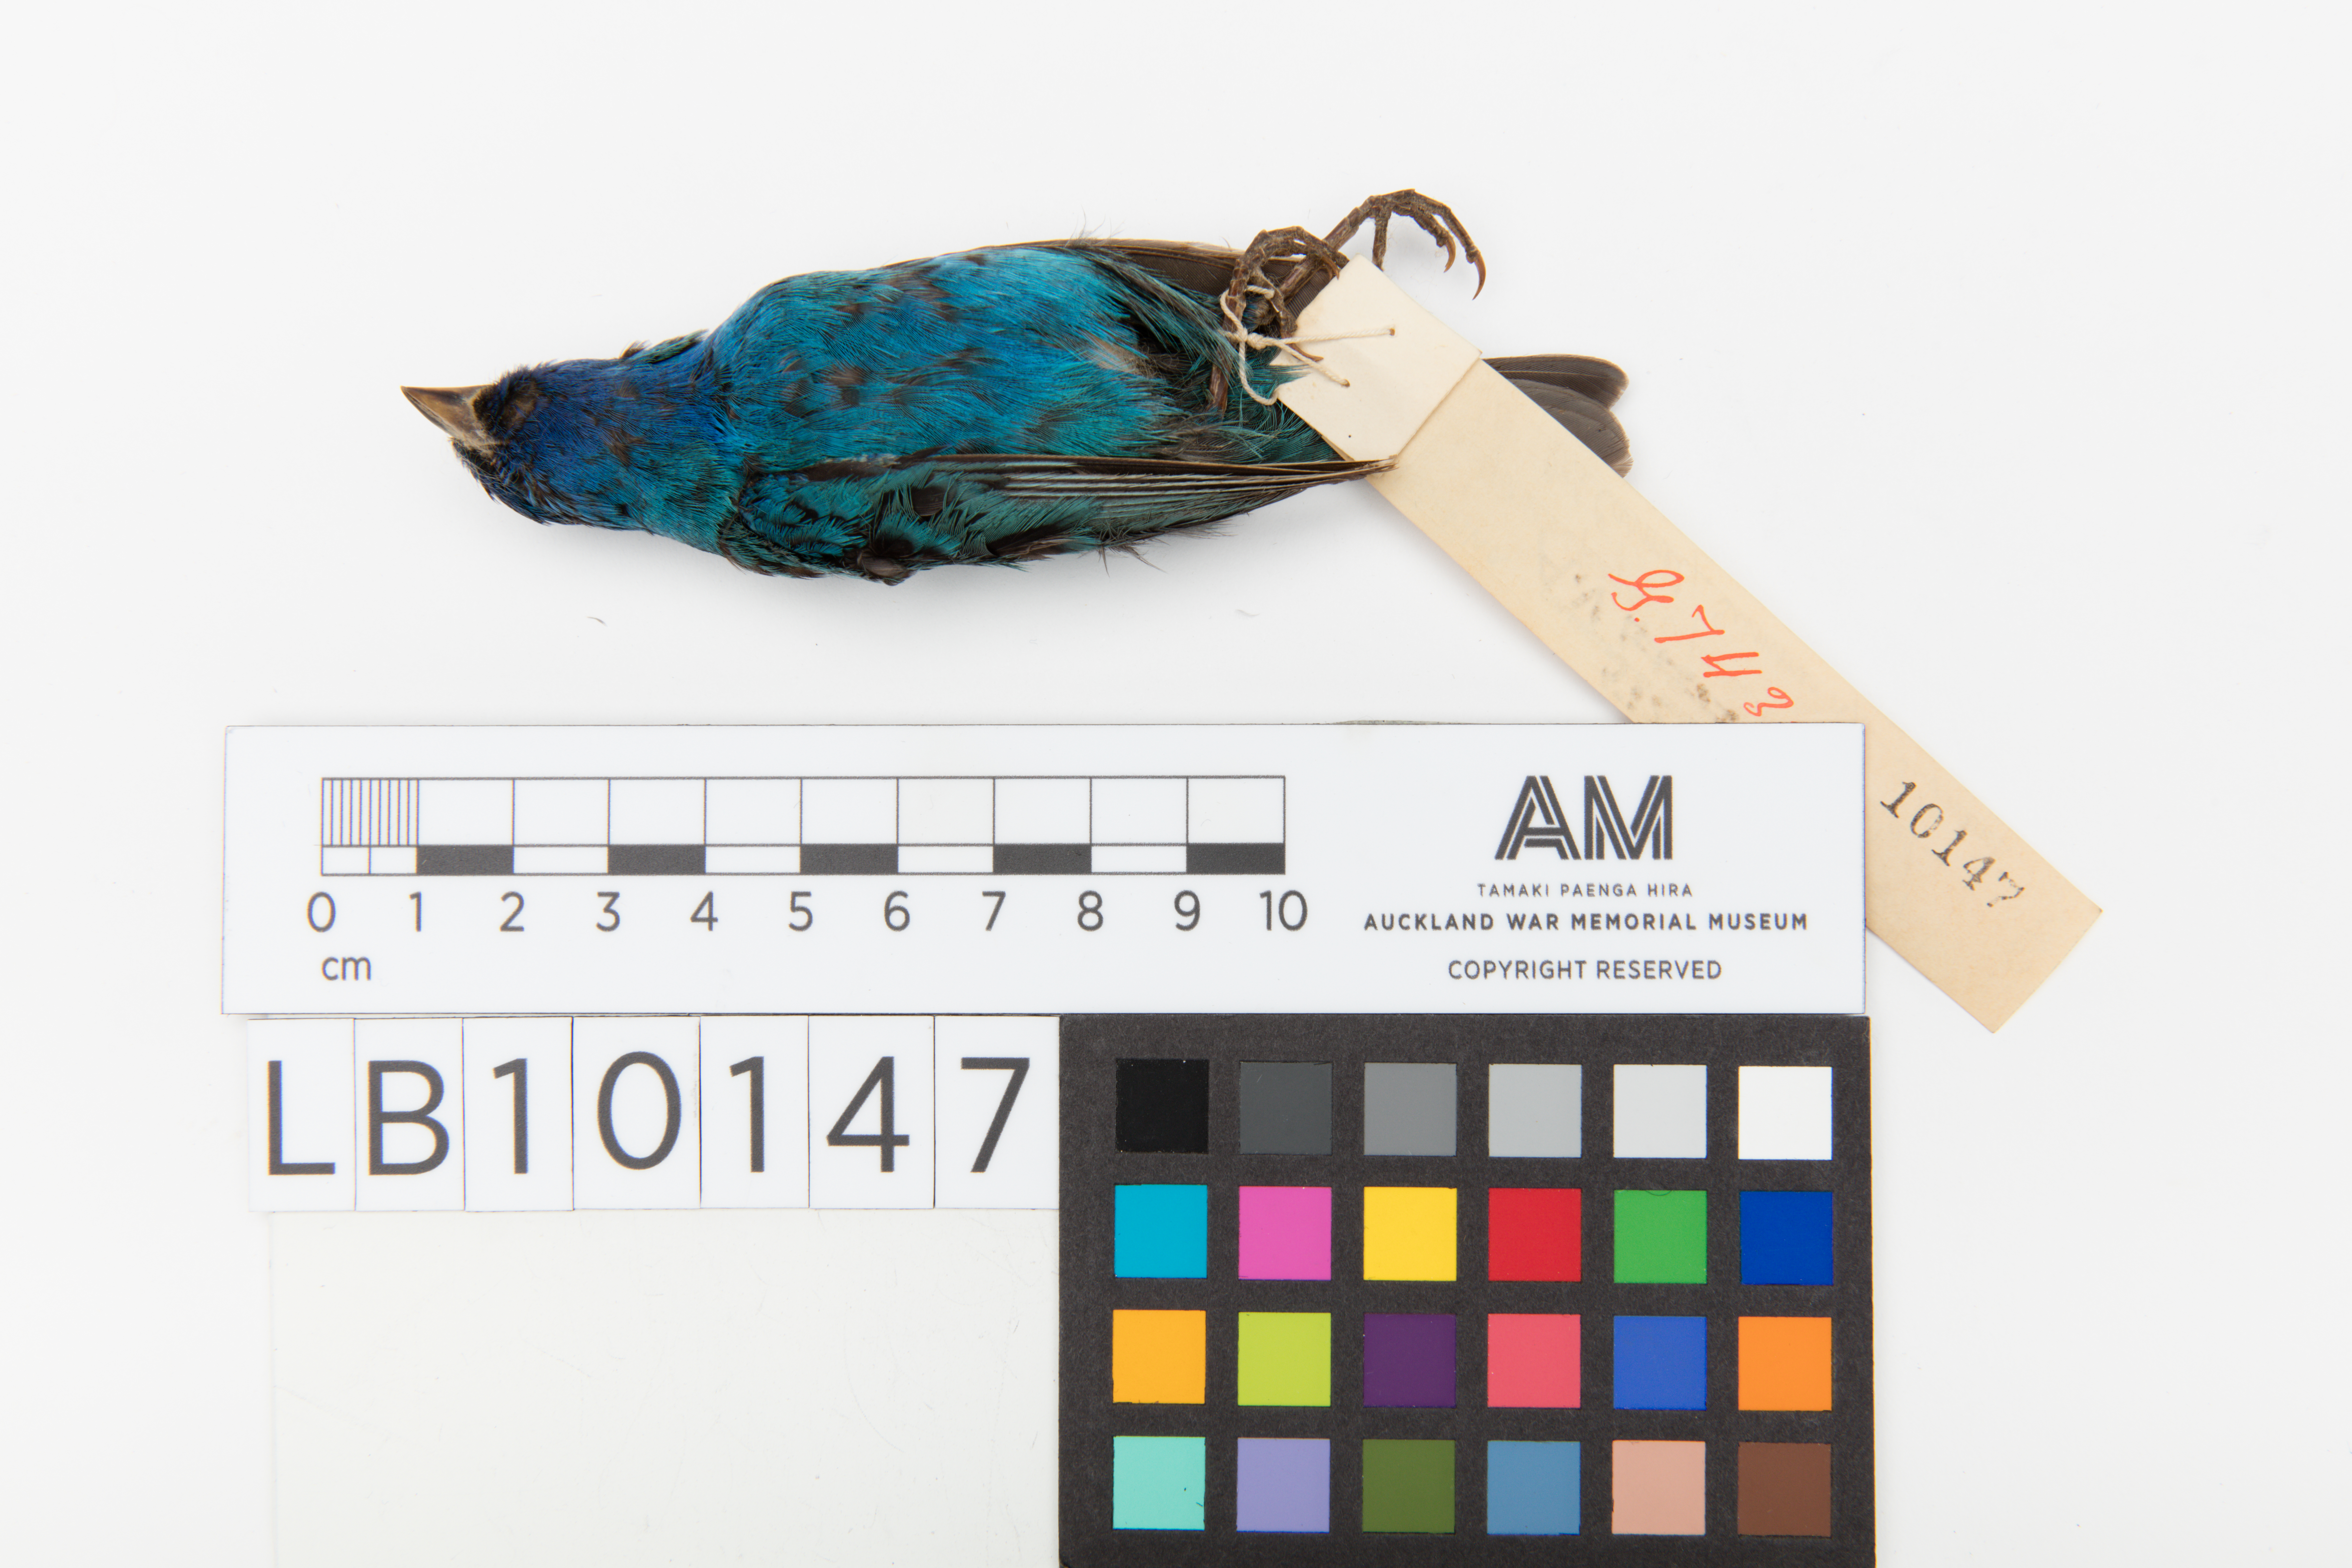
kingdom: Animalia
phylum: Chordata
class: Aves
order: Passeriformes
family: Cardinalidae
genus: Passerina
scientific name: Passerina cyanea
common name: Indigo bunting
